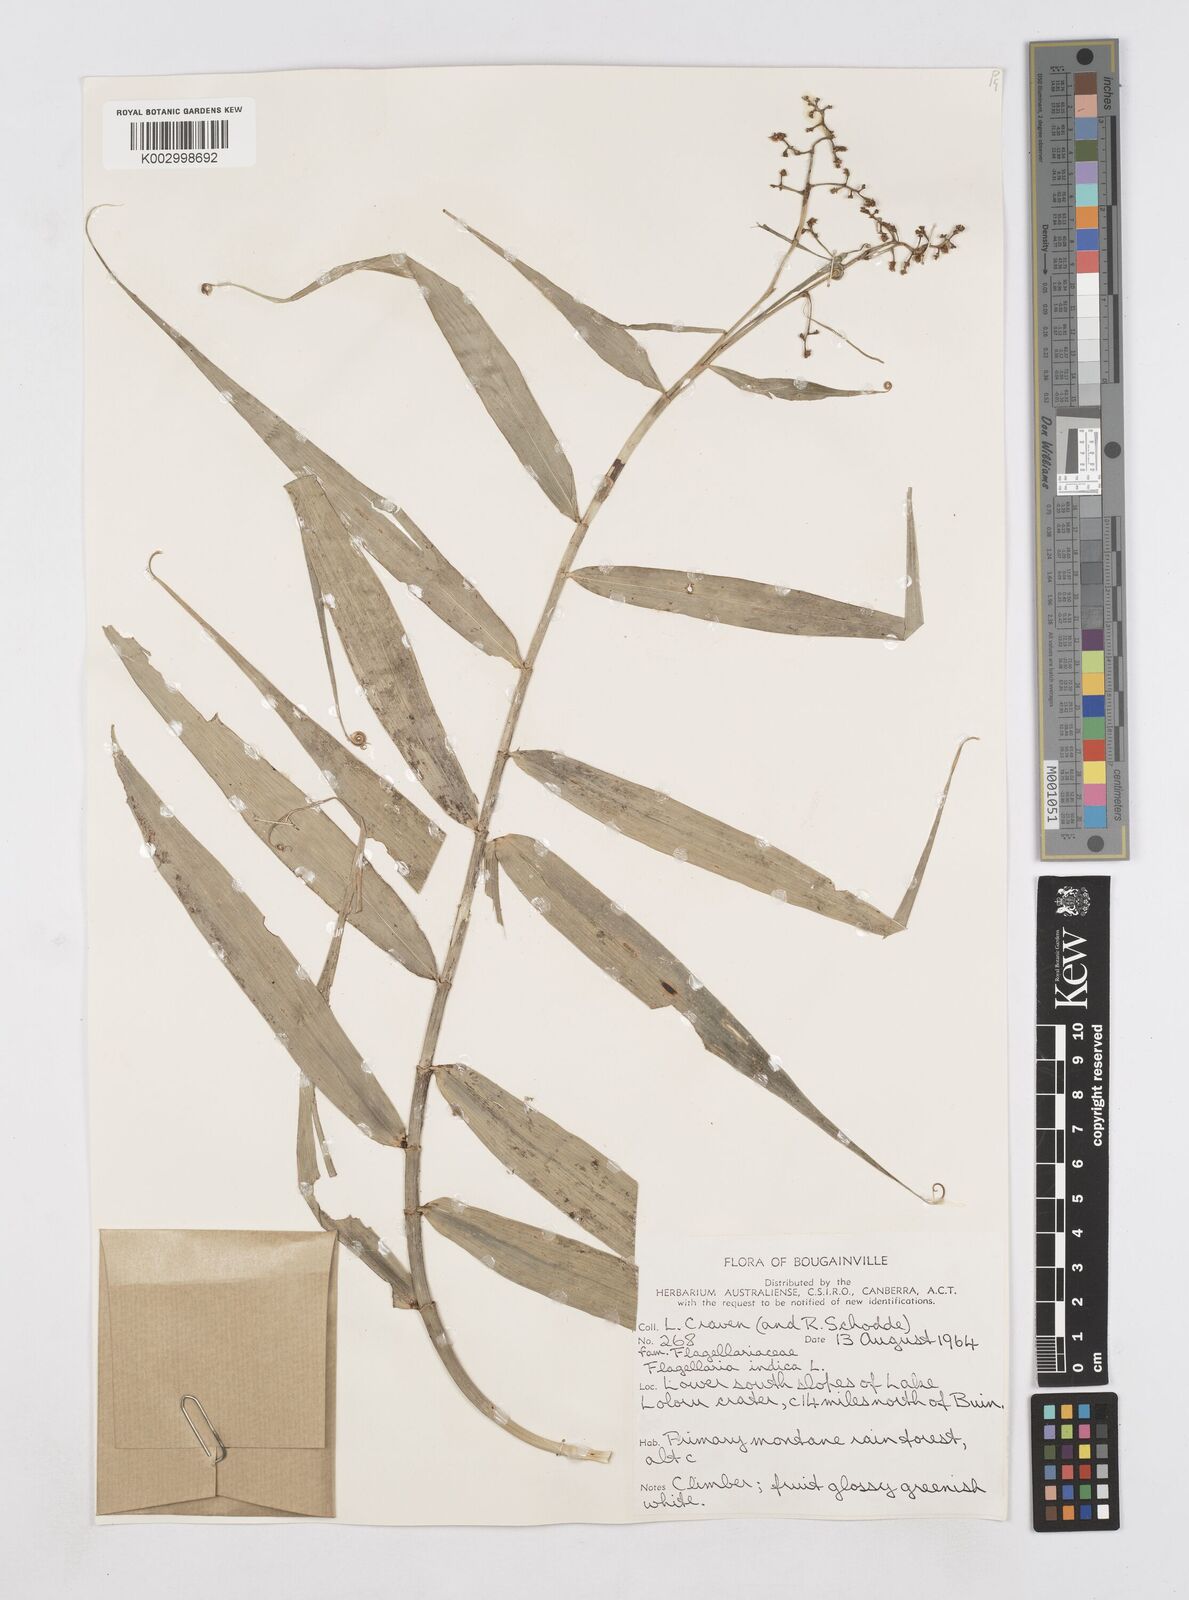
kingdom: Plantae
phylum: Tracheophyta
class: Liliopsida
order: Poales
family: Flagellariaceae
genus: Flagellaria
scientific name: Flagellaria indica
